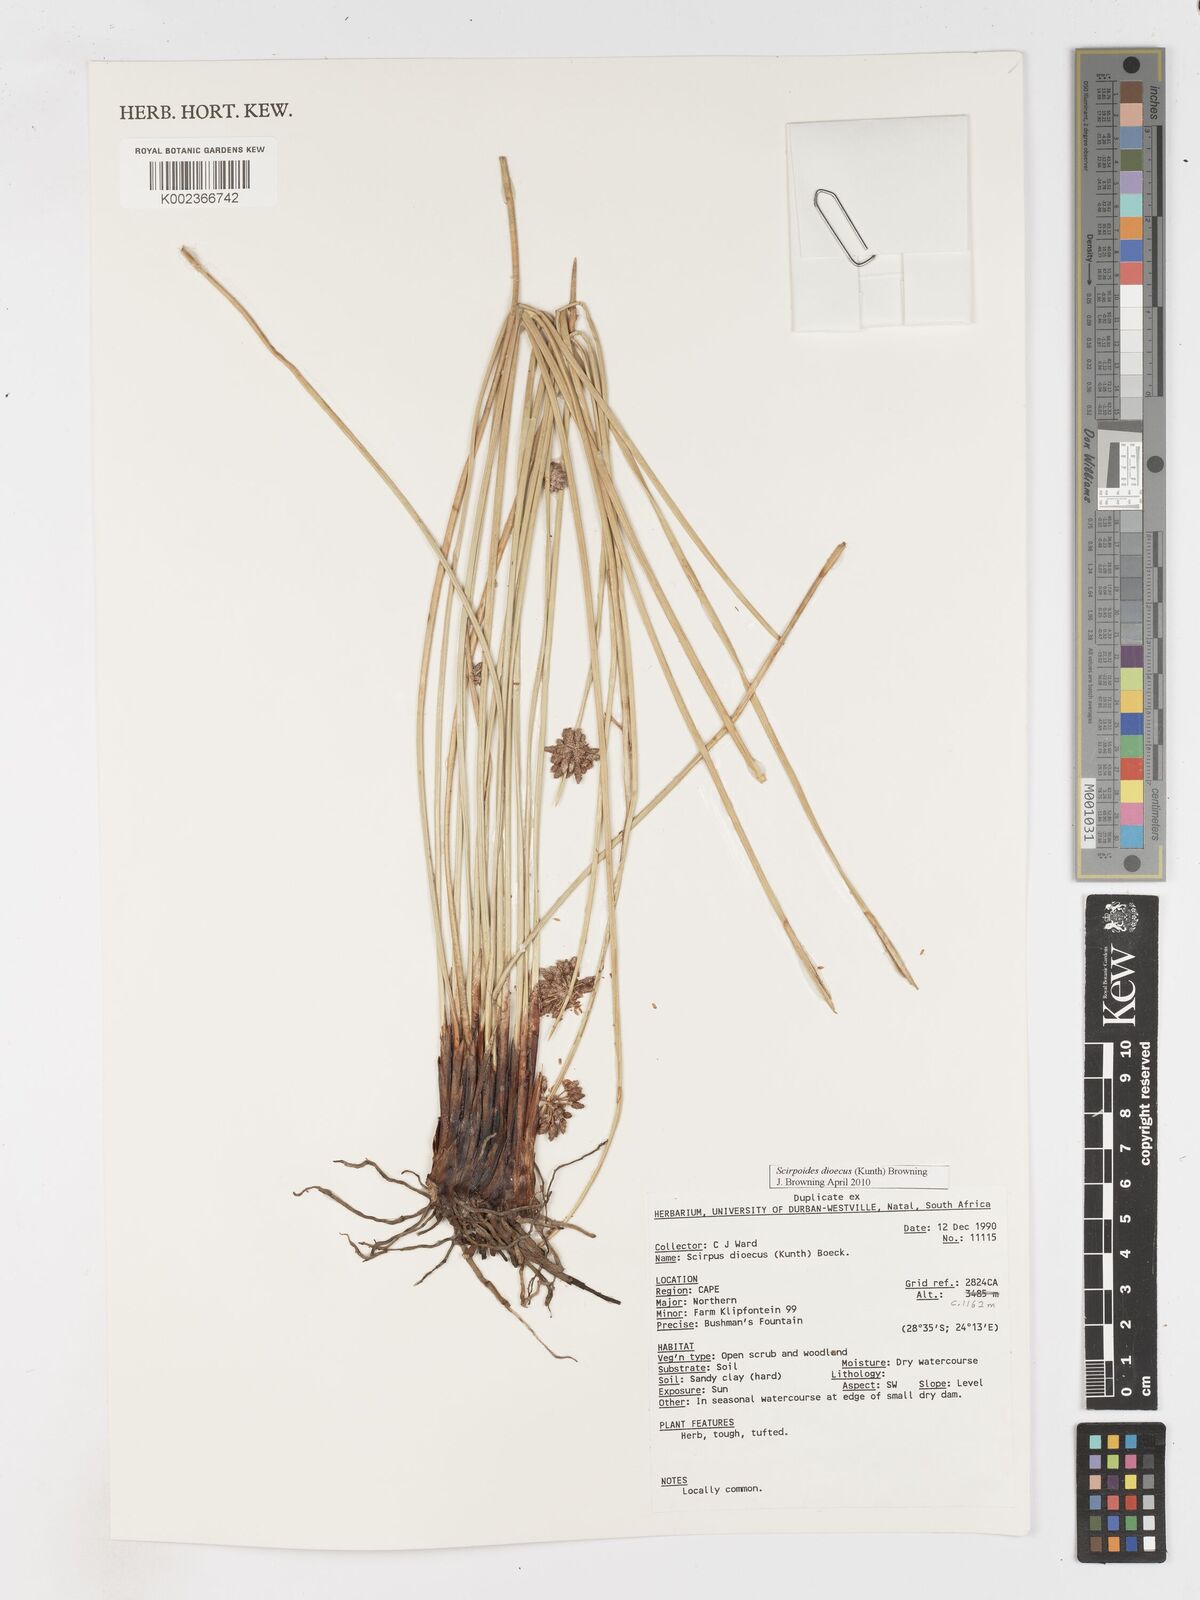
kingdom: Plantae
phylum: Tracheophyta
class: Liliopsida
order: Poales
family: Cyperaceae
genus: Afroscirpoides
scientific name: Afroscirpoides dioeca
